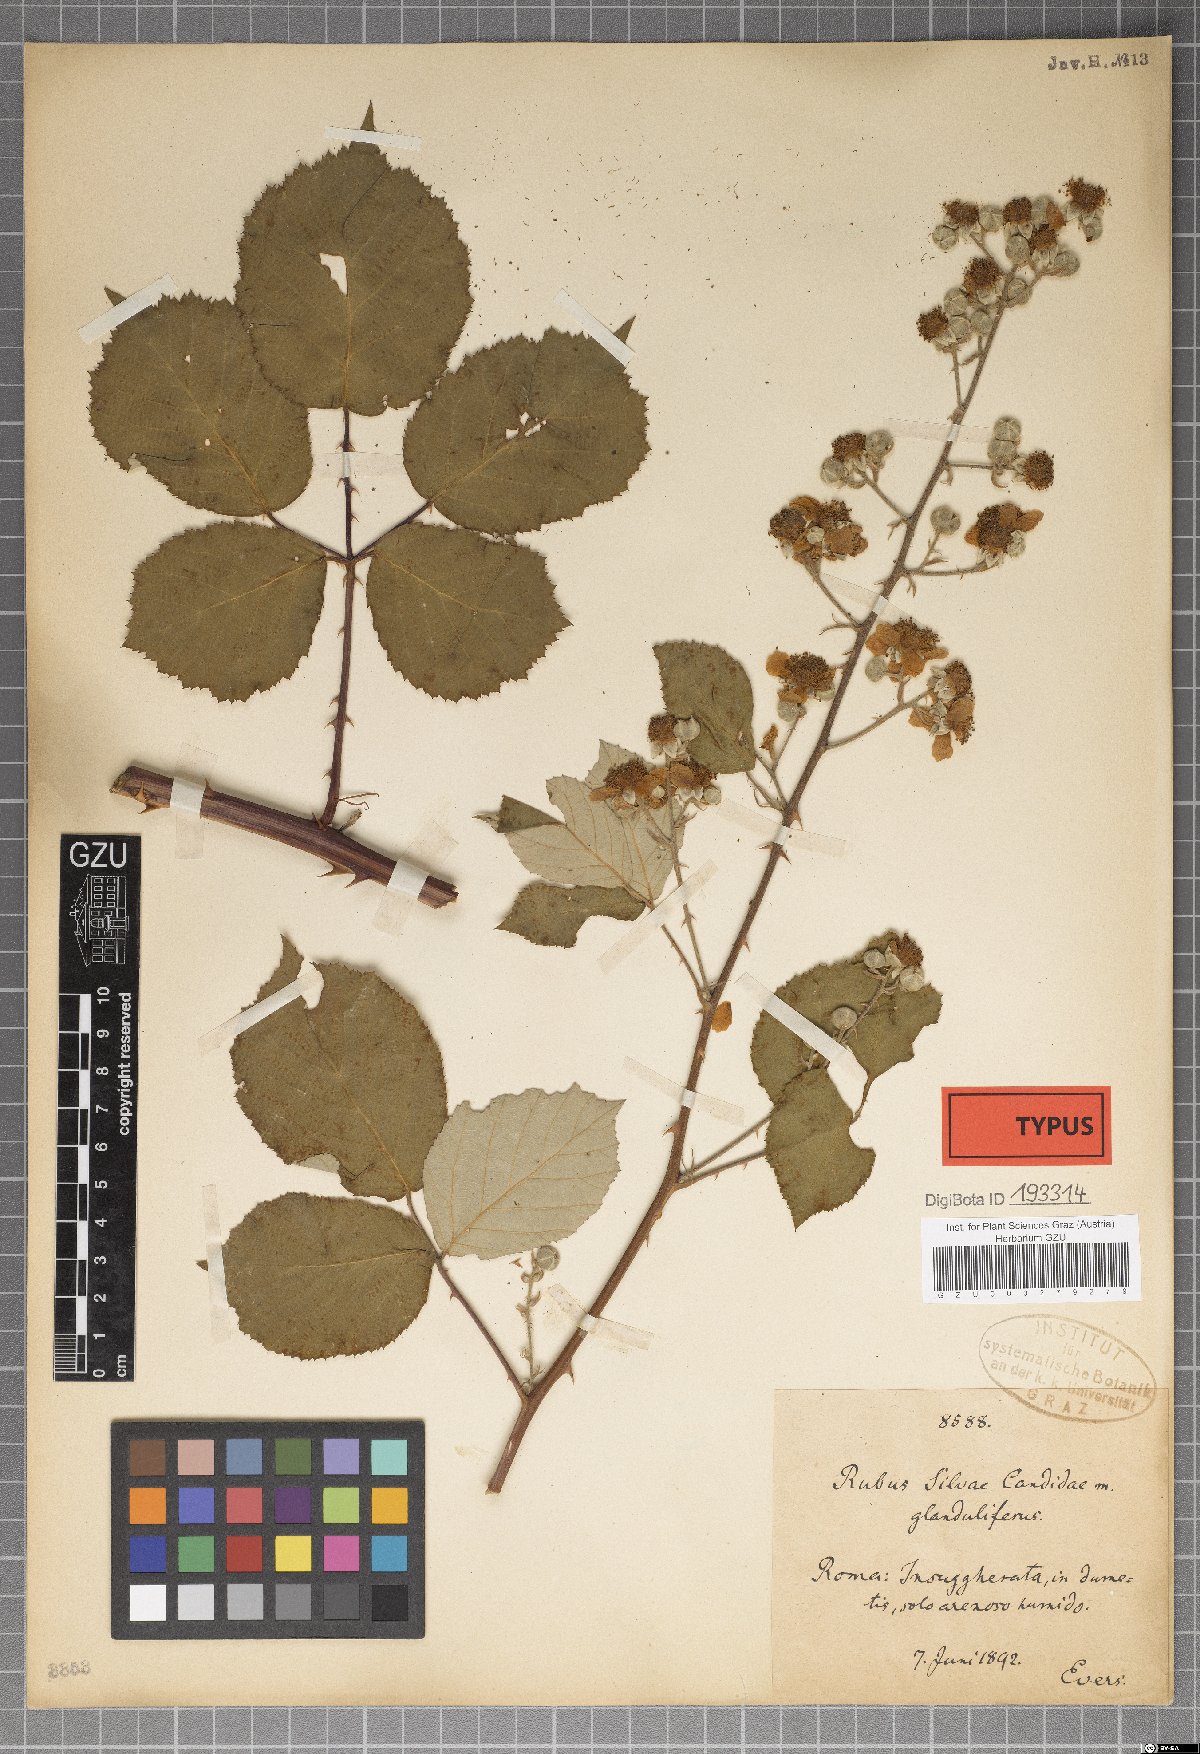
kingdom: Plantae
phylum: Tracheophyta
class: Magnoliopsida
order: Rosales
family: Rosaceae
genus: Rubus
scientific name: Rubus silvae-candidae
